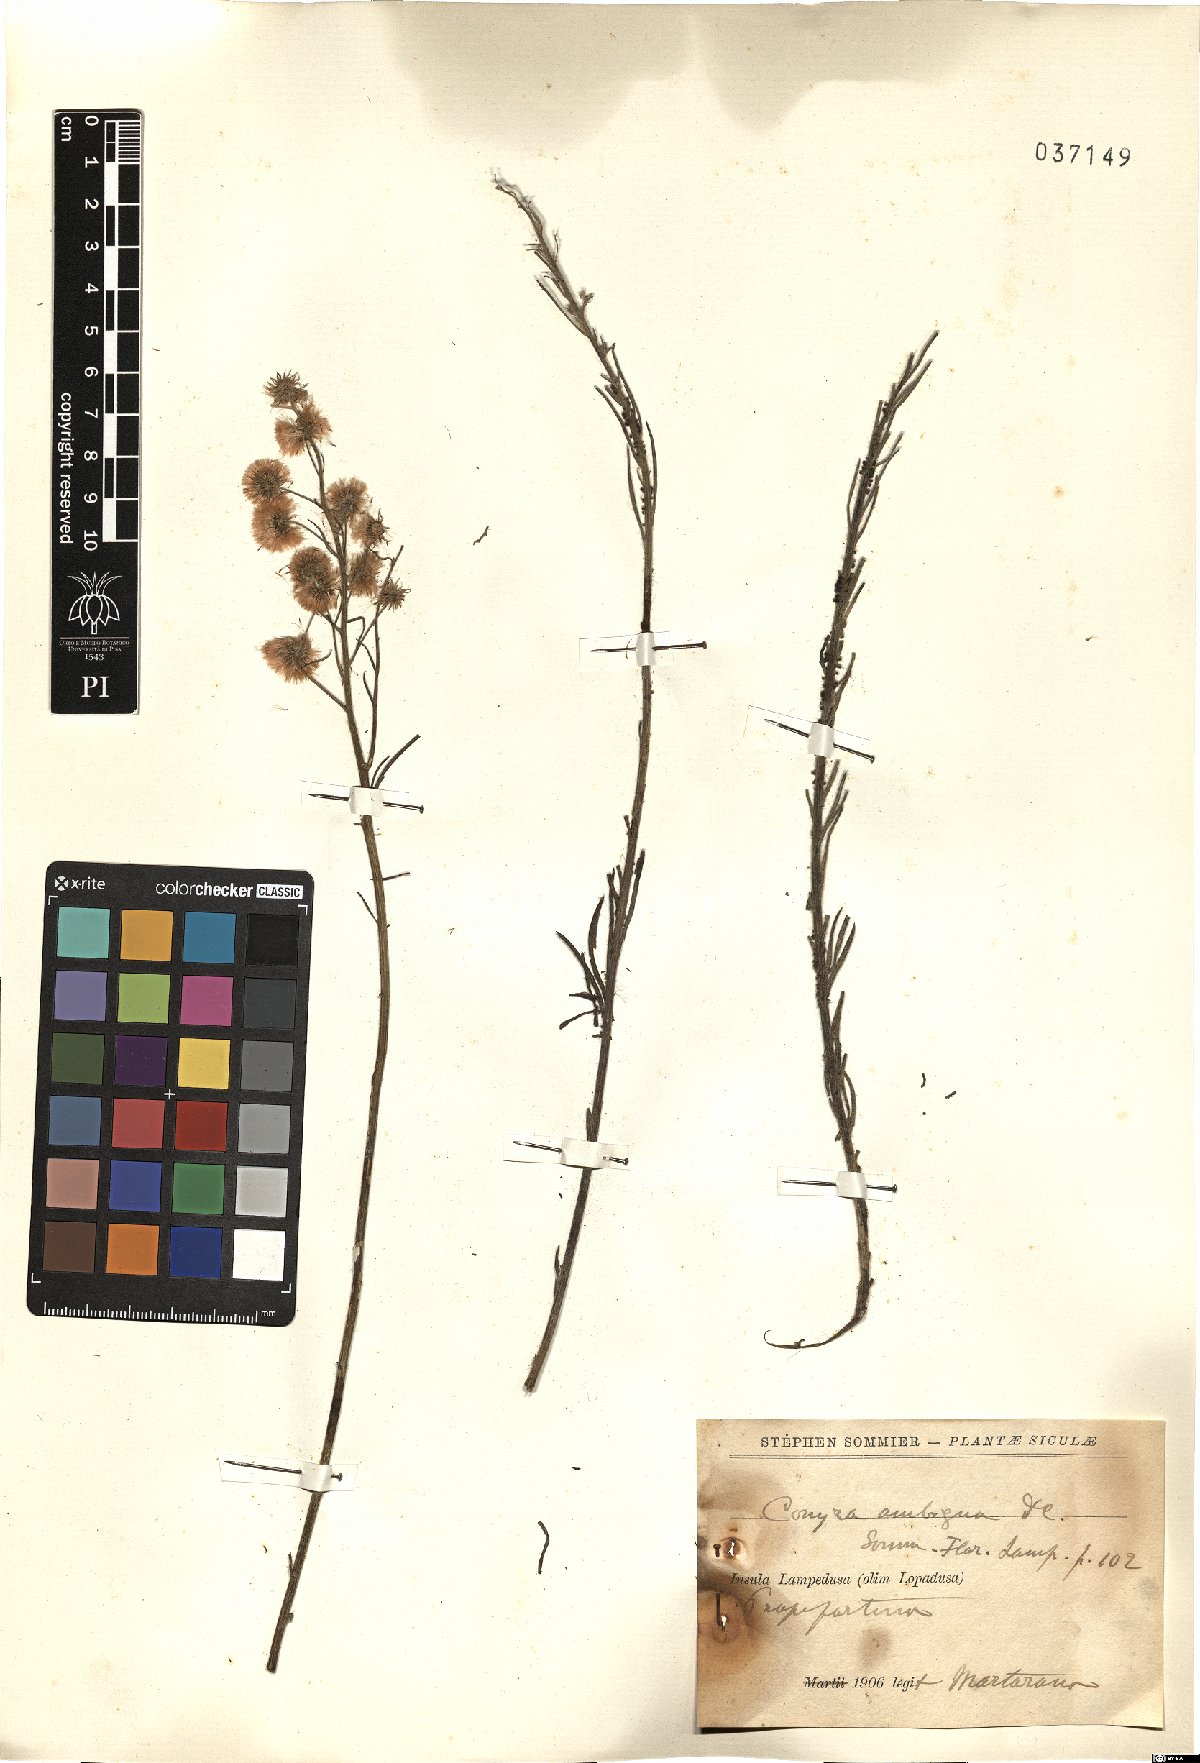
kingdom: Plantae
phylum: Tracheophyta
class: Magnoliopsida
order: Asterales
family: Asteraceae
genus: Erigeron
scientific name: Erigeron sumatrensis
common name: Daisy
